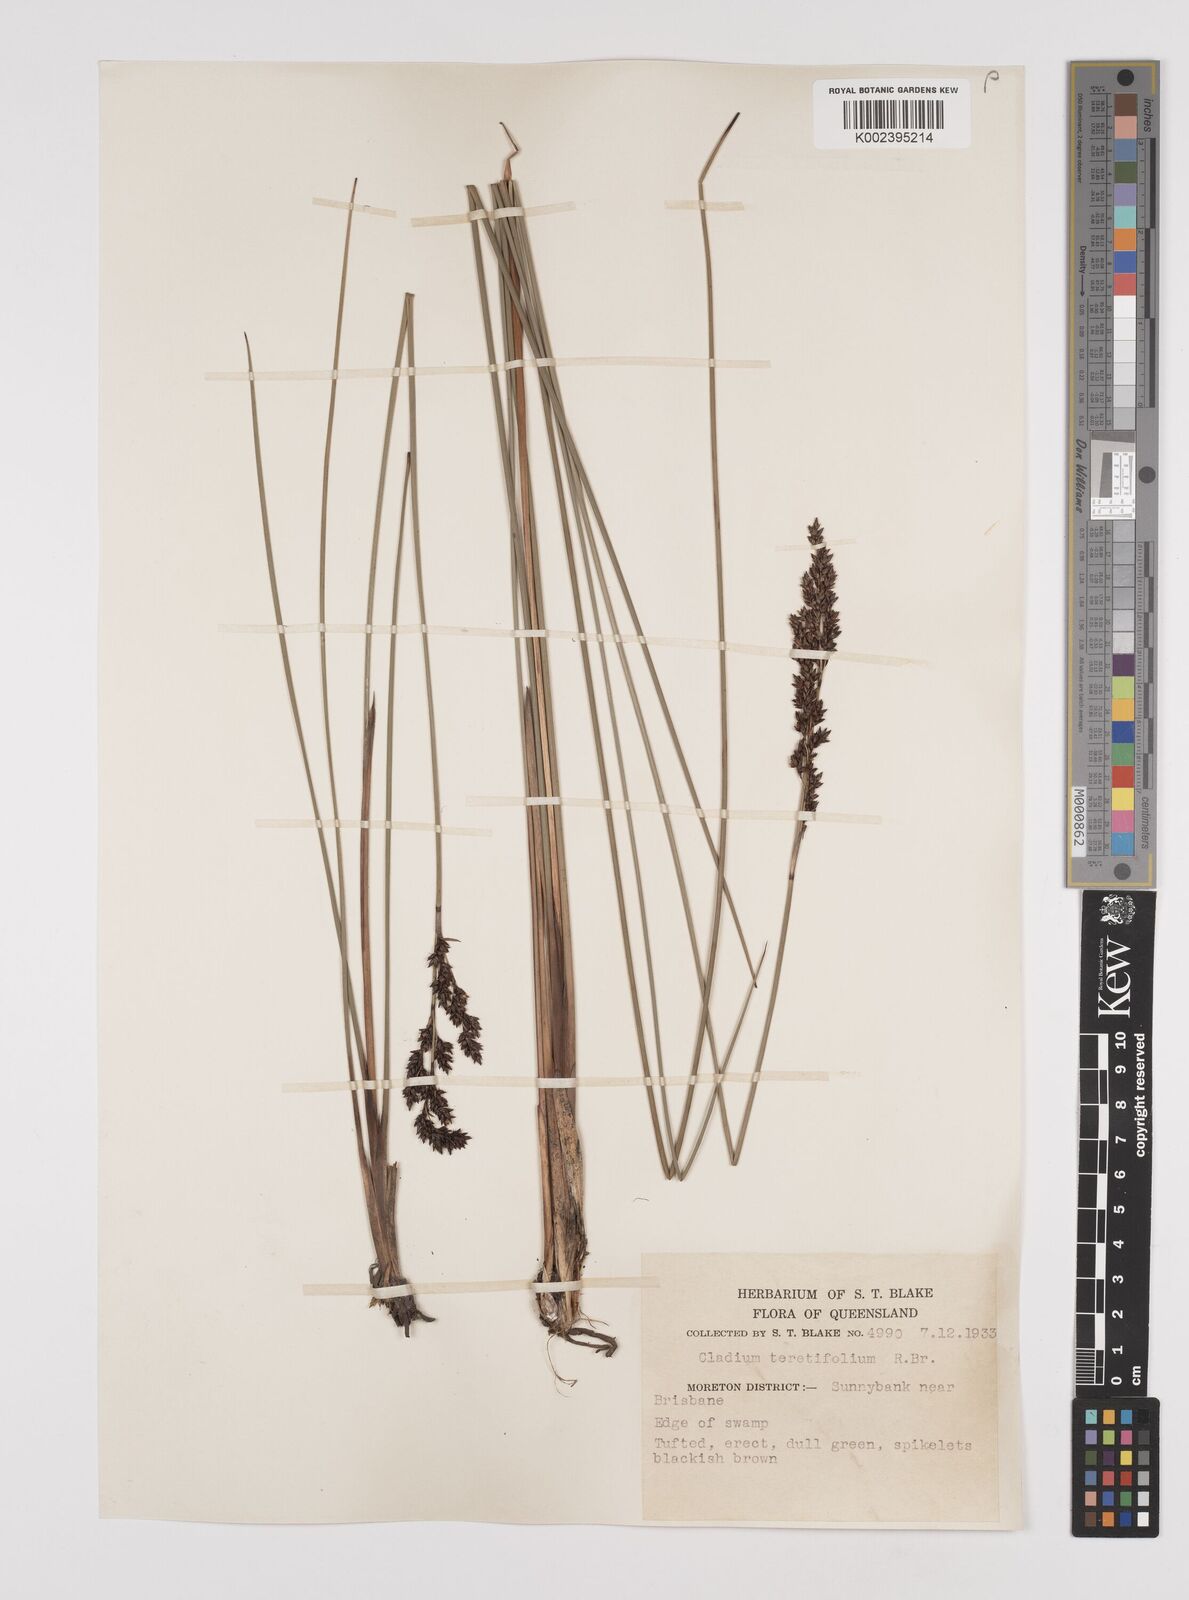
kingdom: Plantae
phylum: Tracheophyta
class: Liliopsida
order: Poales
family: Cyperaceae
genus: Machaerina
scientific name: Machaerina teretifolia
